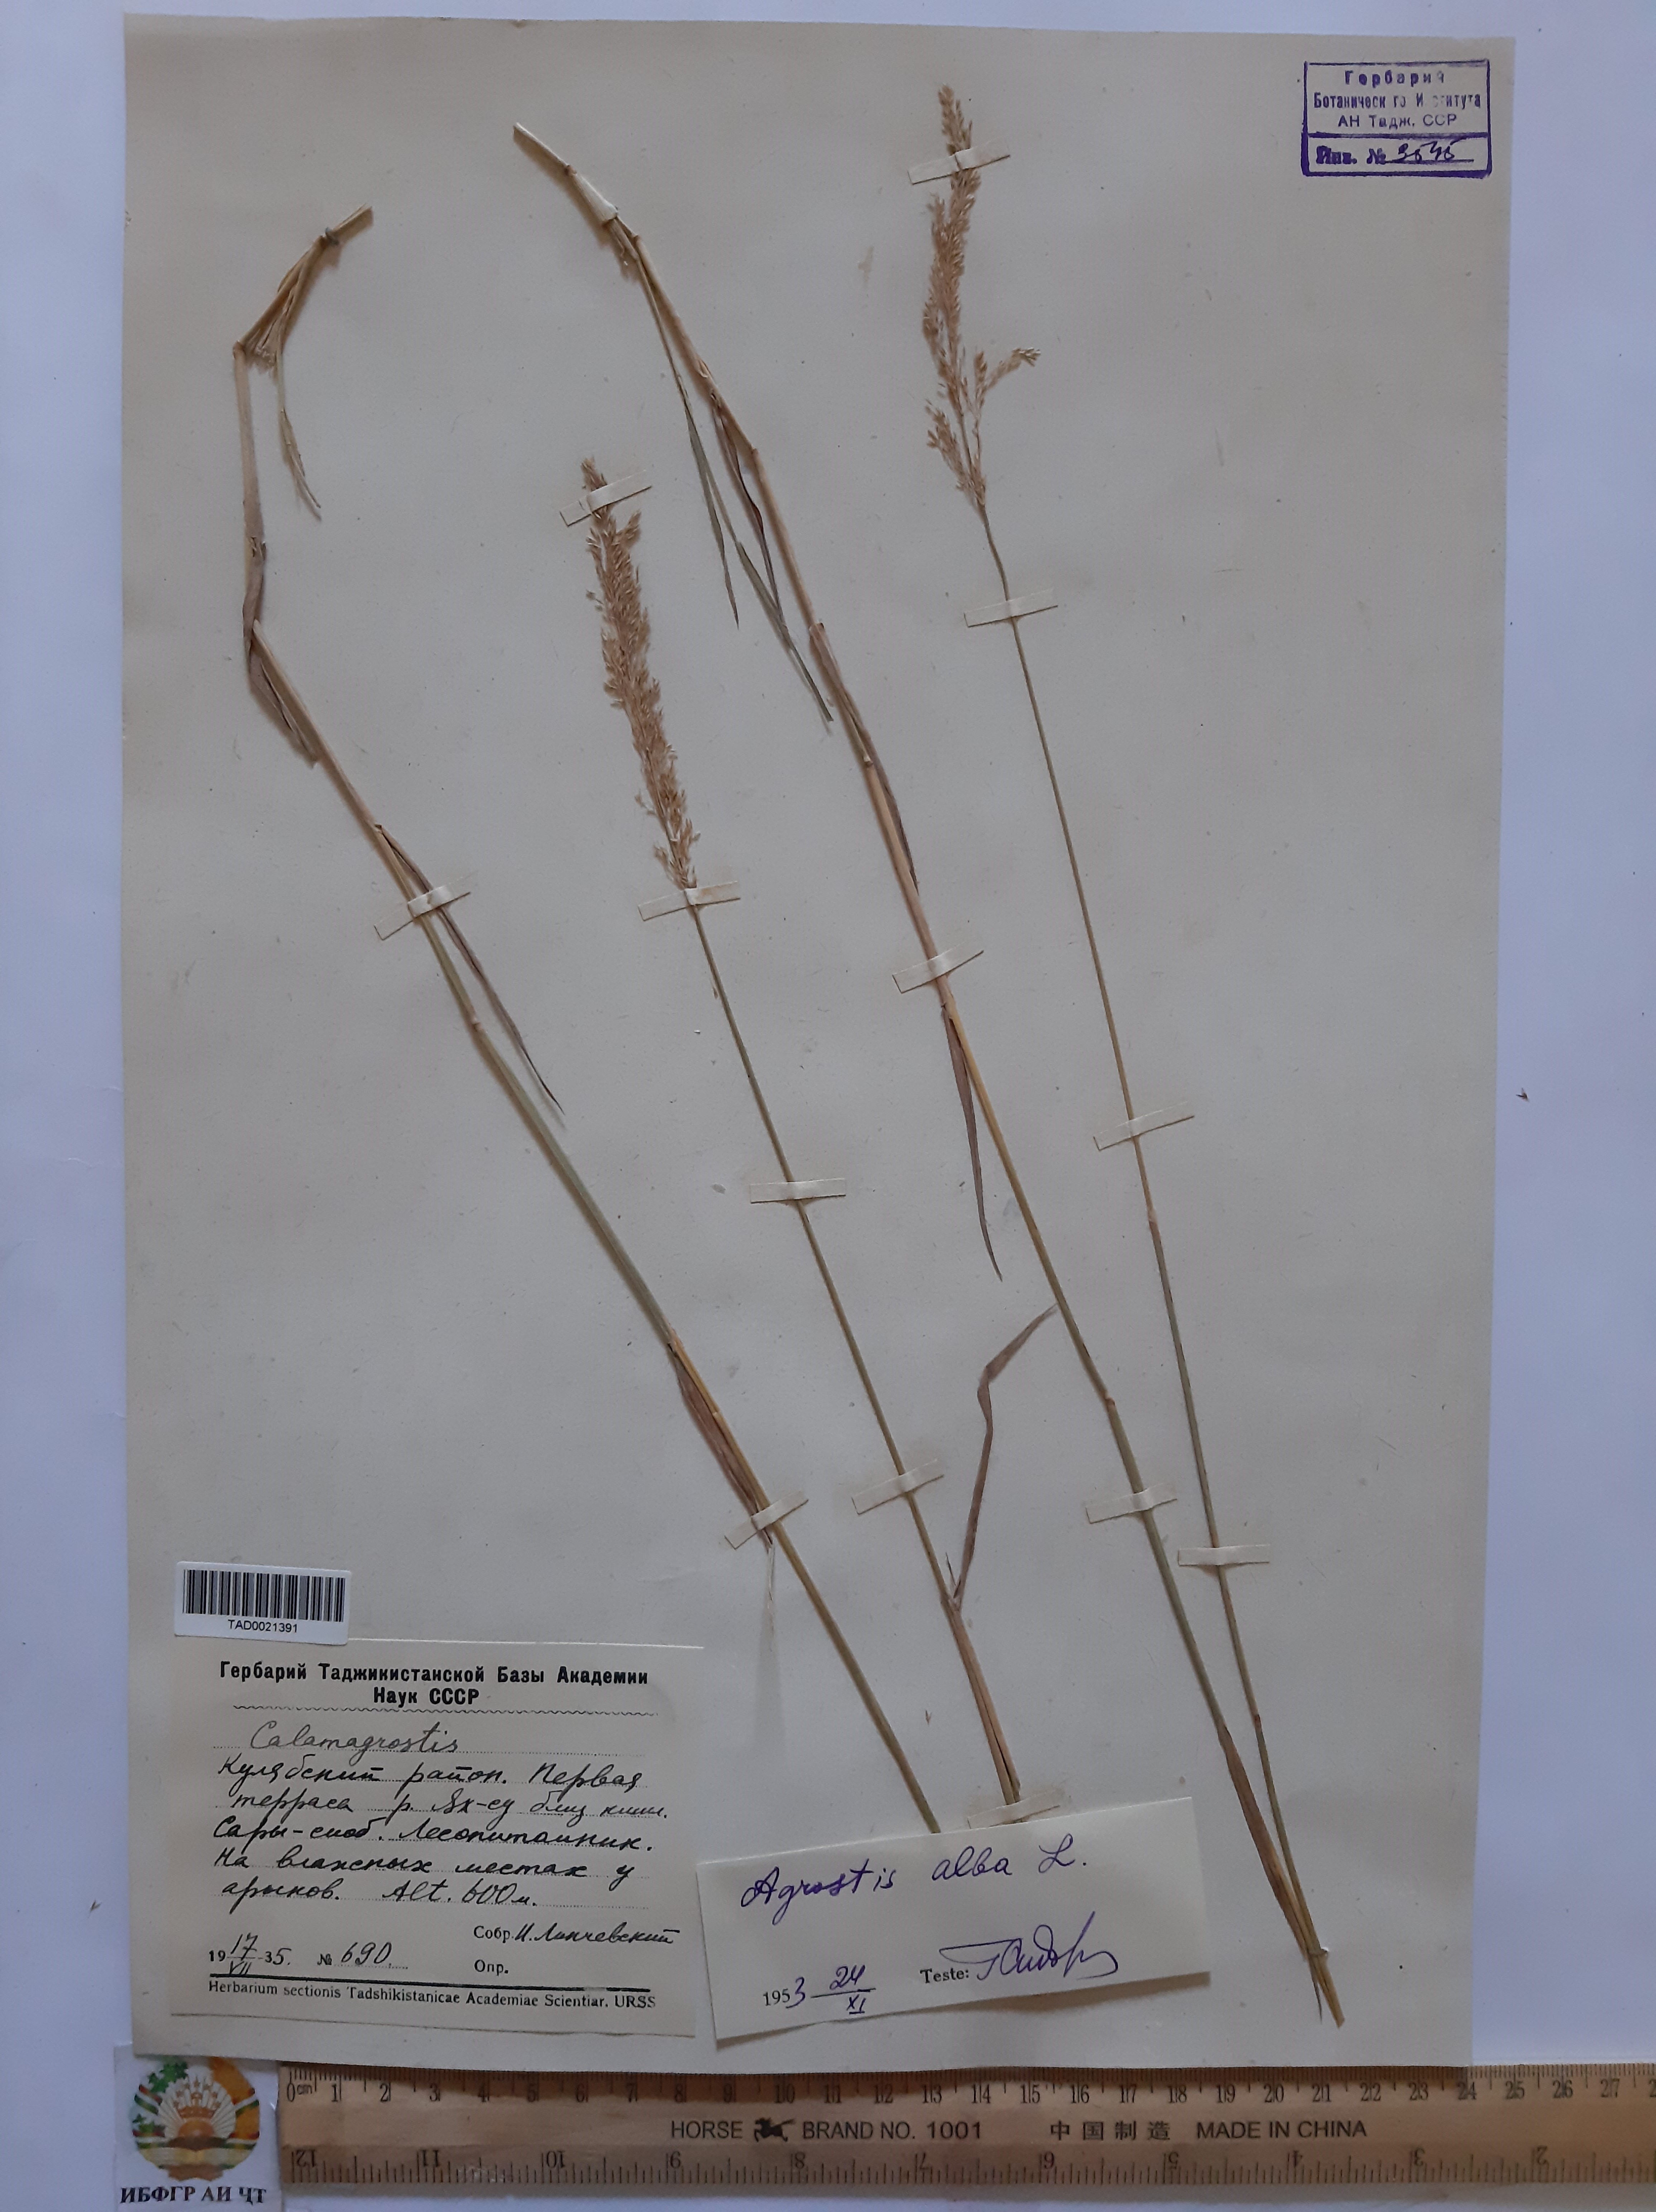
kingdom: Plantae
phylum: Tracheophyta
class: Liliopsida
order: Poales
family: Poaceae
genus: Poa
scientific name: Poa nemoralis
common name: Wood bluegrass
